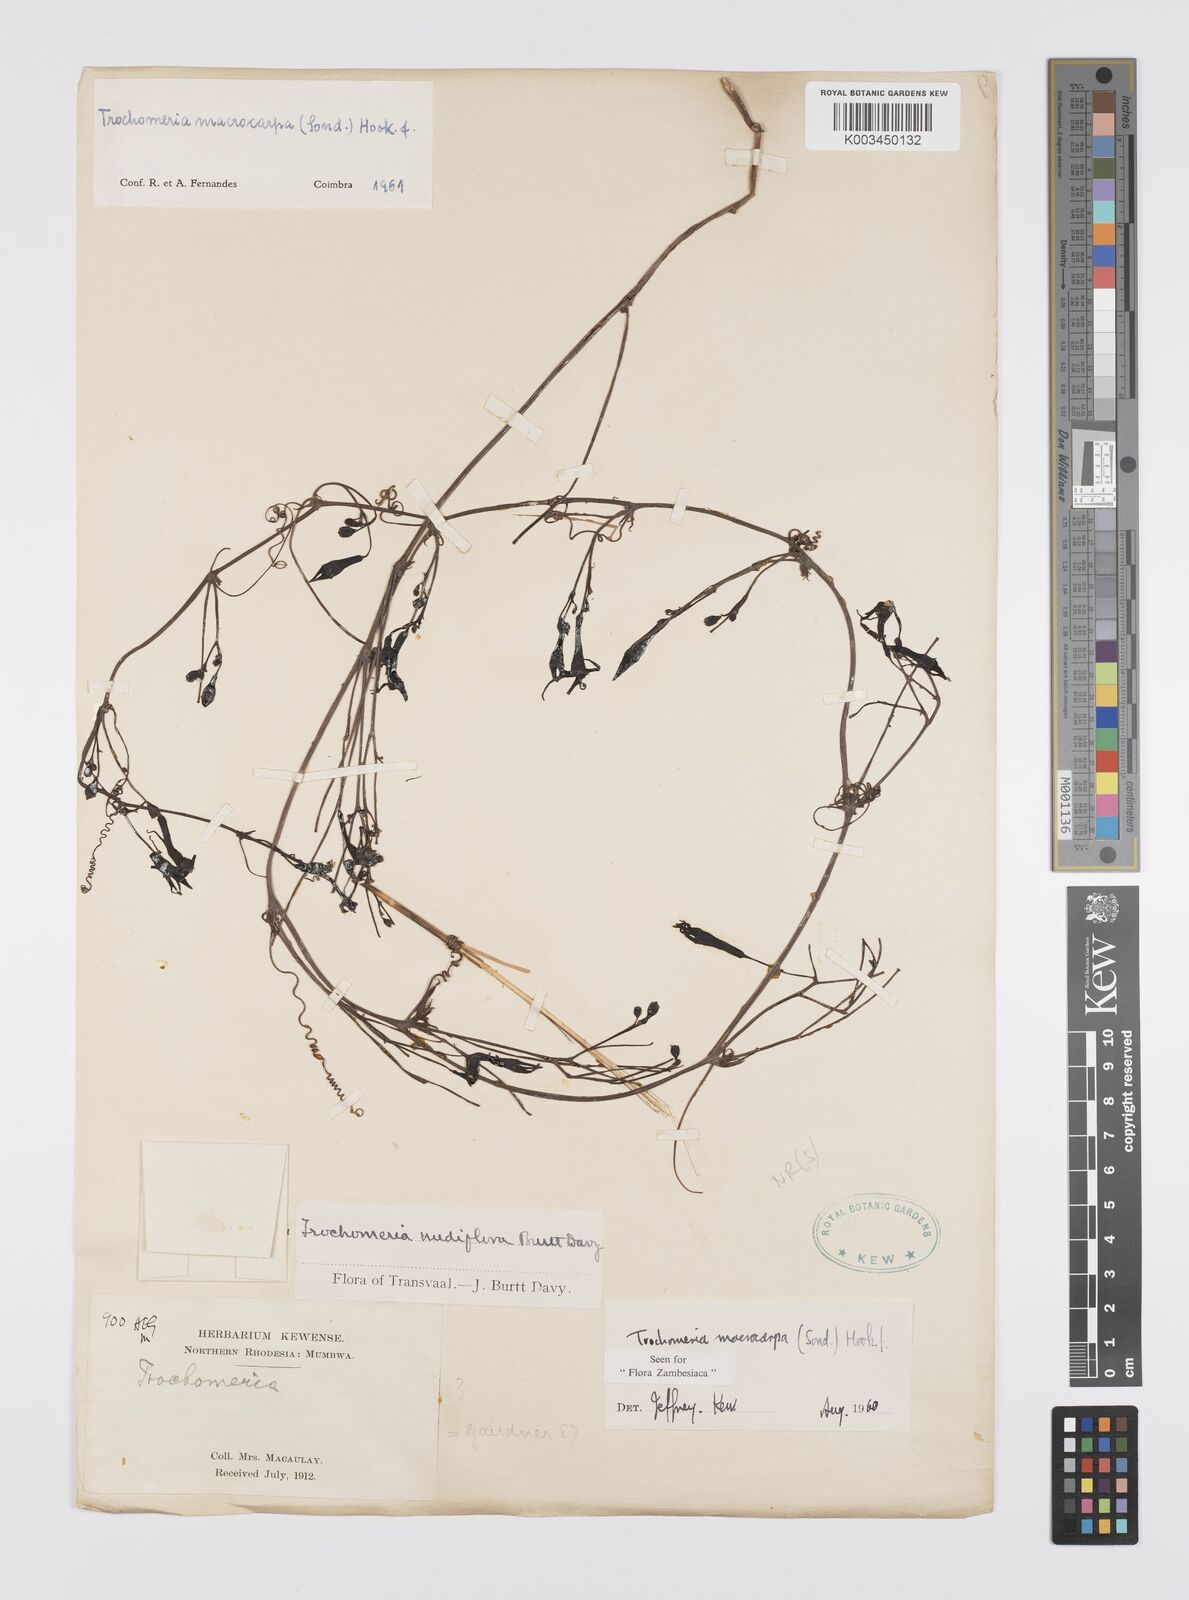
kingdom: Plantae
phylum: Tracheophyta
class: Magnoliopsida
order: Cucurbitales
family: Cucurbitaceae
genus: Trochomeria
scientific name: Trochomeria macrocarpa
